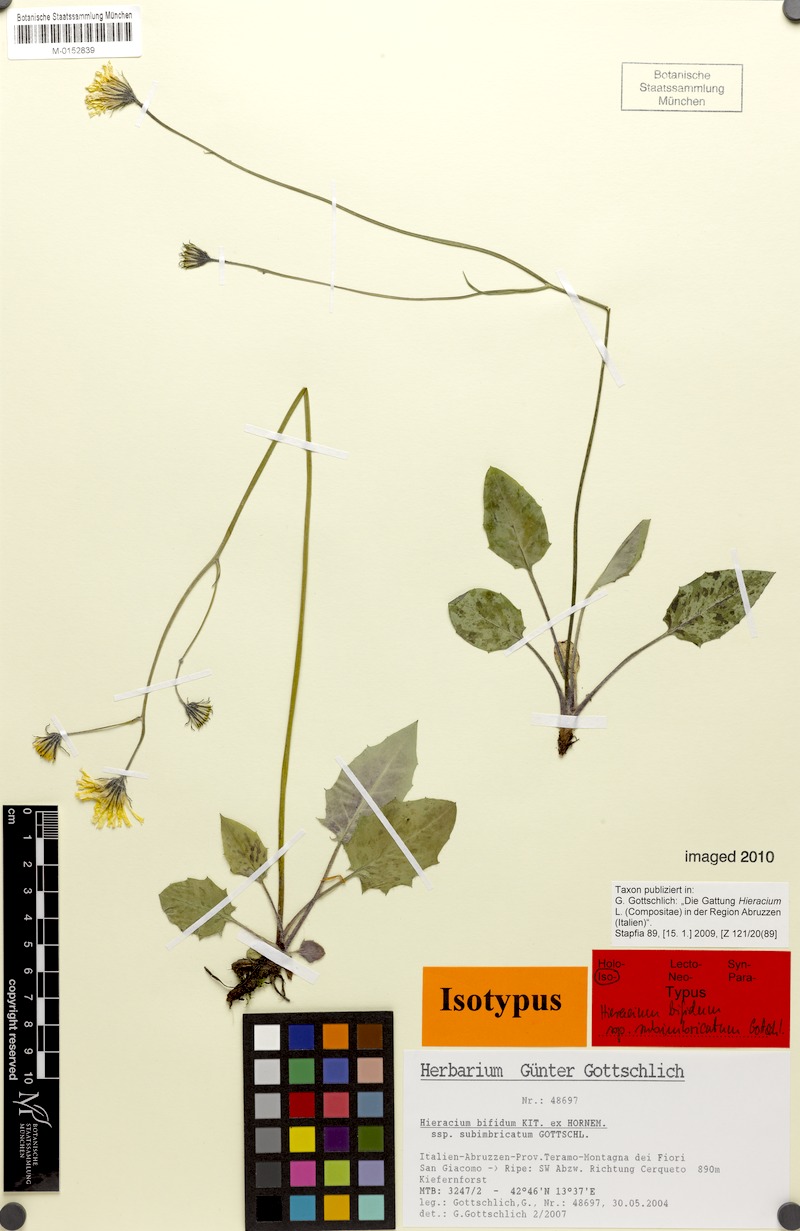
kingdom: Plantae
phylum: Tracheophyta
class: Magnoliopsida
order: Asterales
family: Asteraceae
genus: Hieracium
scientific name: Hieracium bifidum
